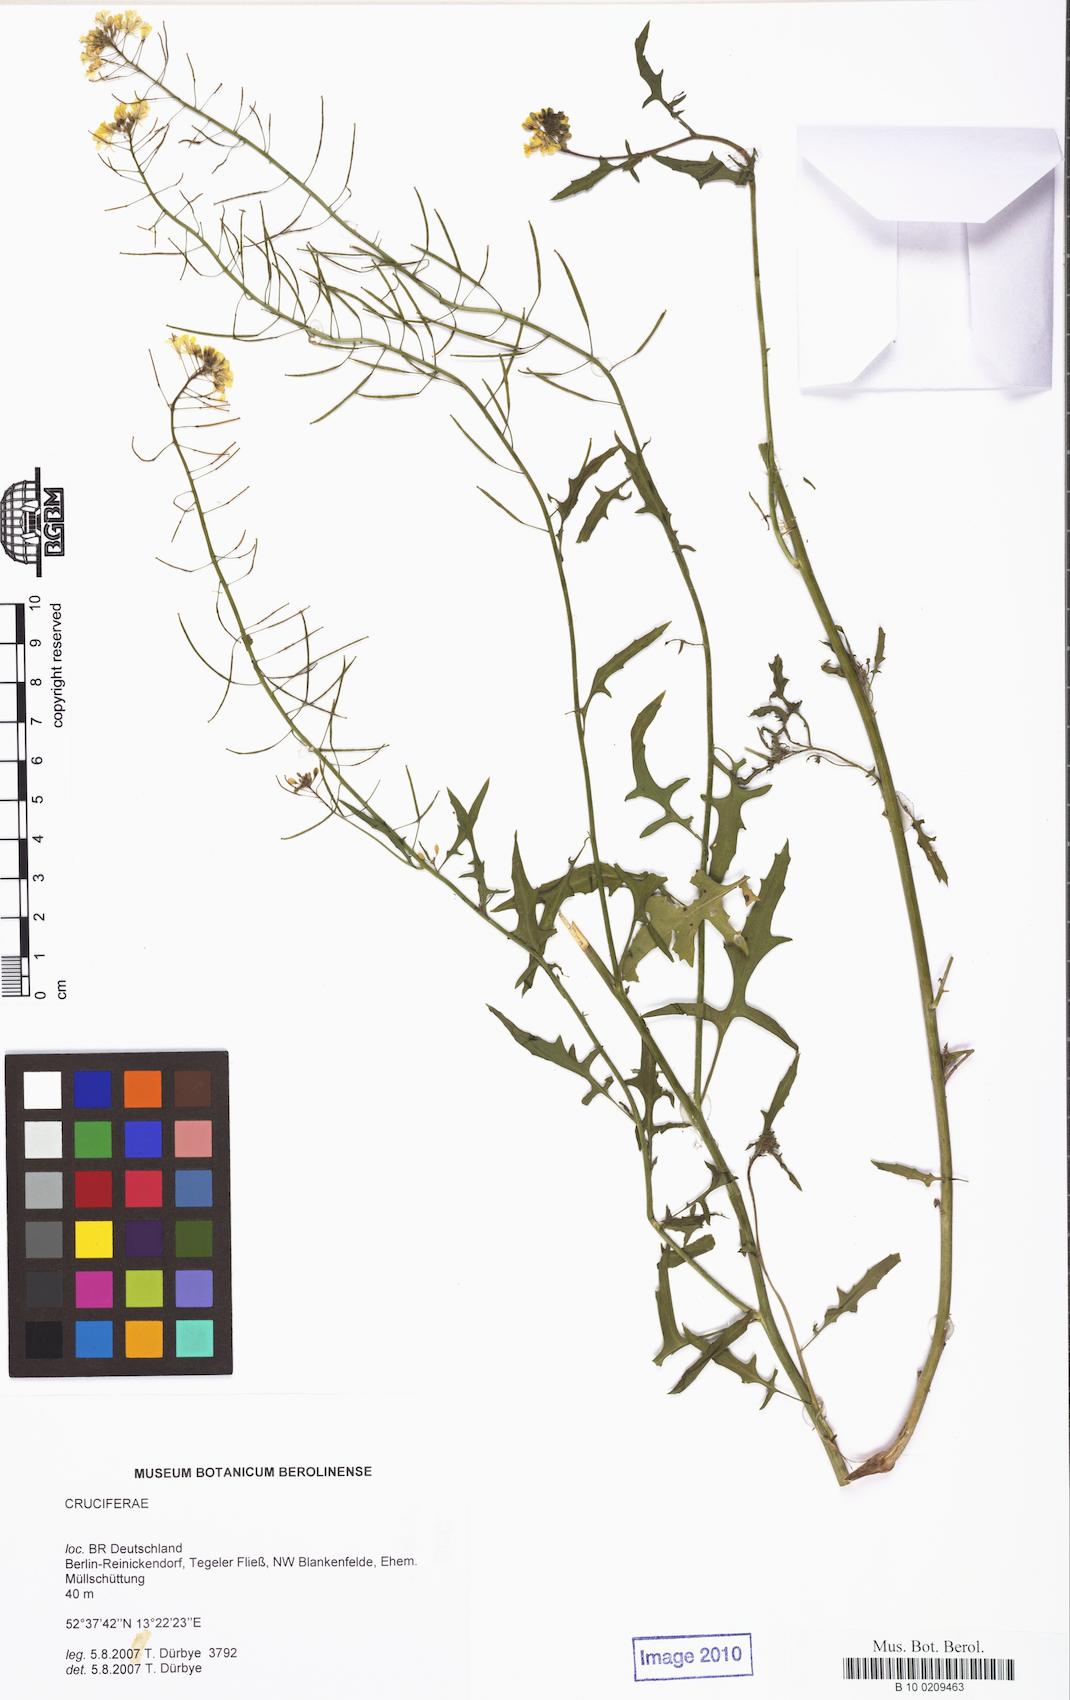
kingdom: Plantae
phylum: Tracheophyta
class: Magnoliopsida
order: Brassicales
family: Brassicaceae
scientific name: Brassicaceae
